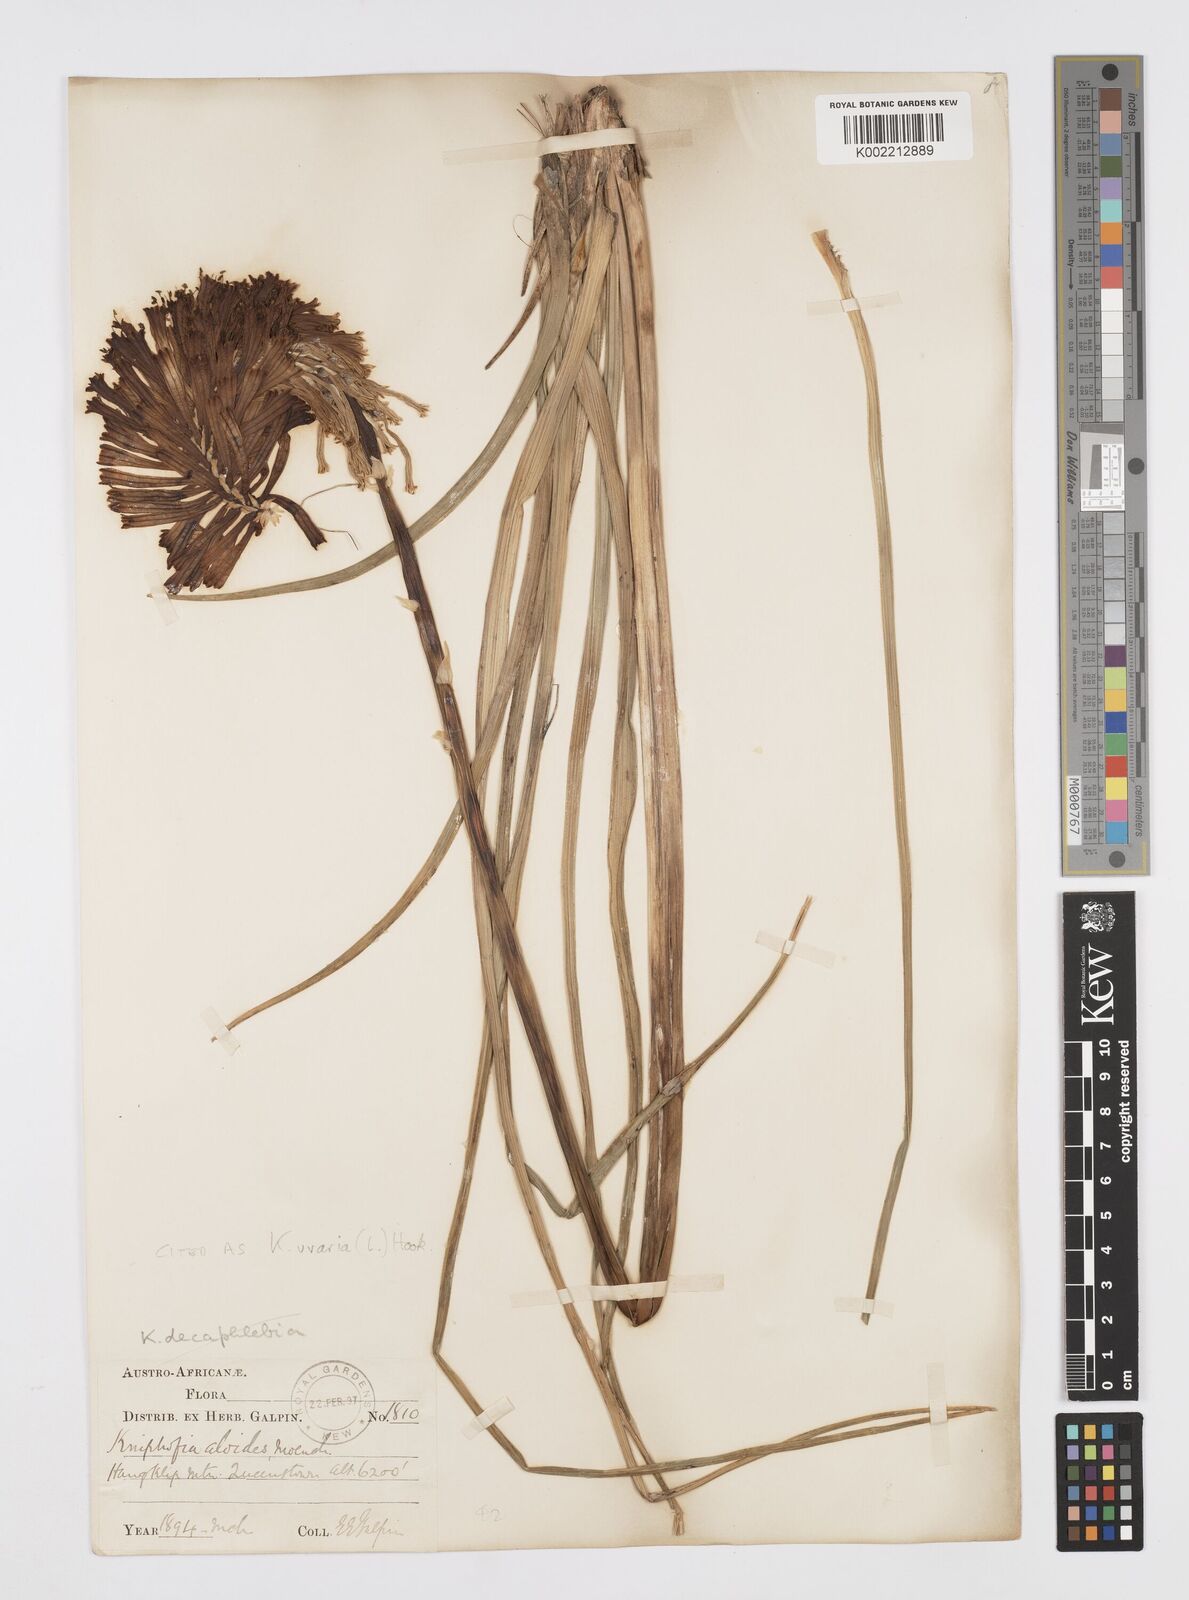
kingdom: Plantae
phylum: Tracheophyta
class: Liliopsida
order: Asparagales
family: Asphodelaceae
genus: Kniphofia
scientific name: Kniphofia uvaria
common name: Red-hot-poker
